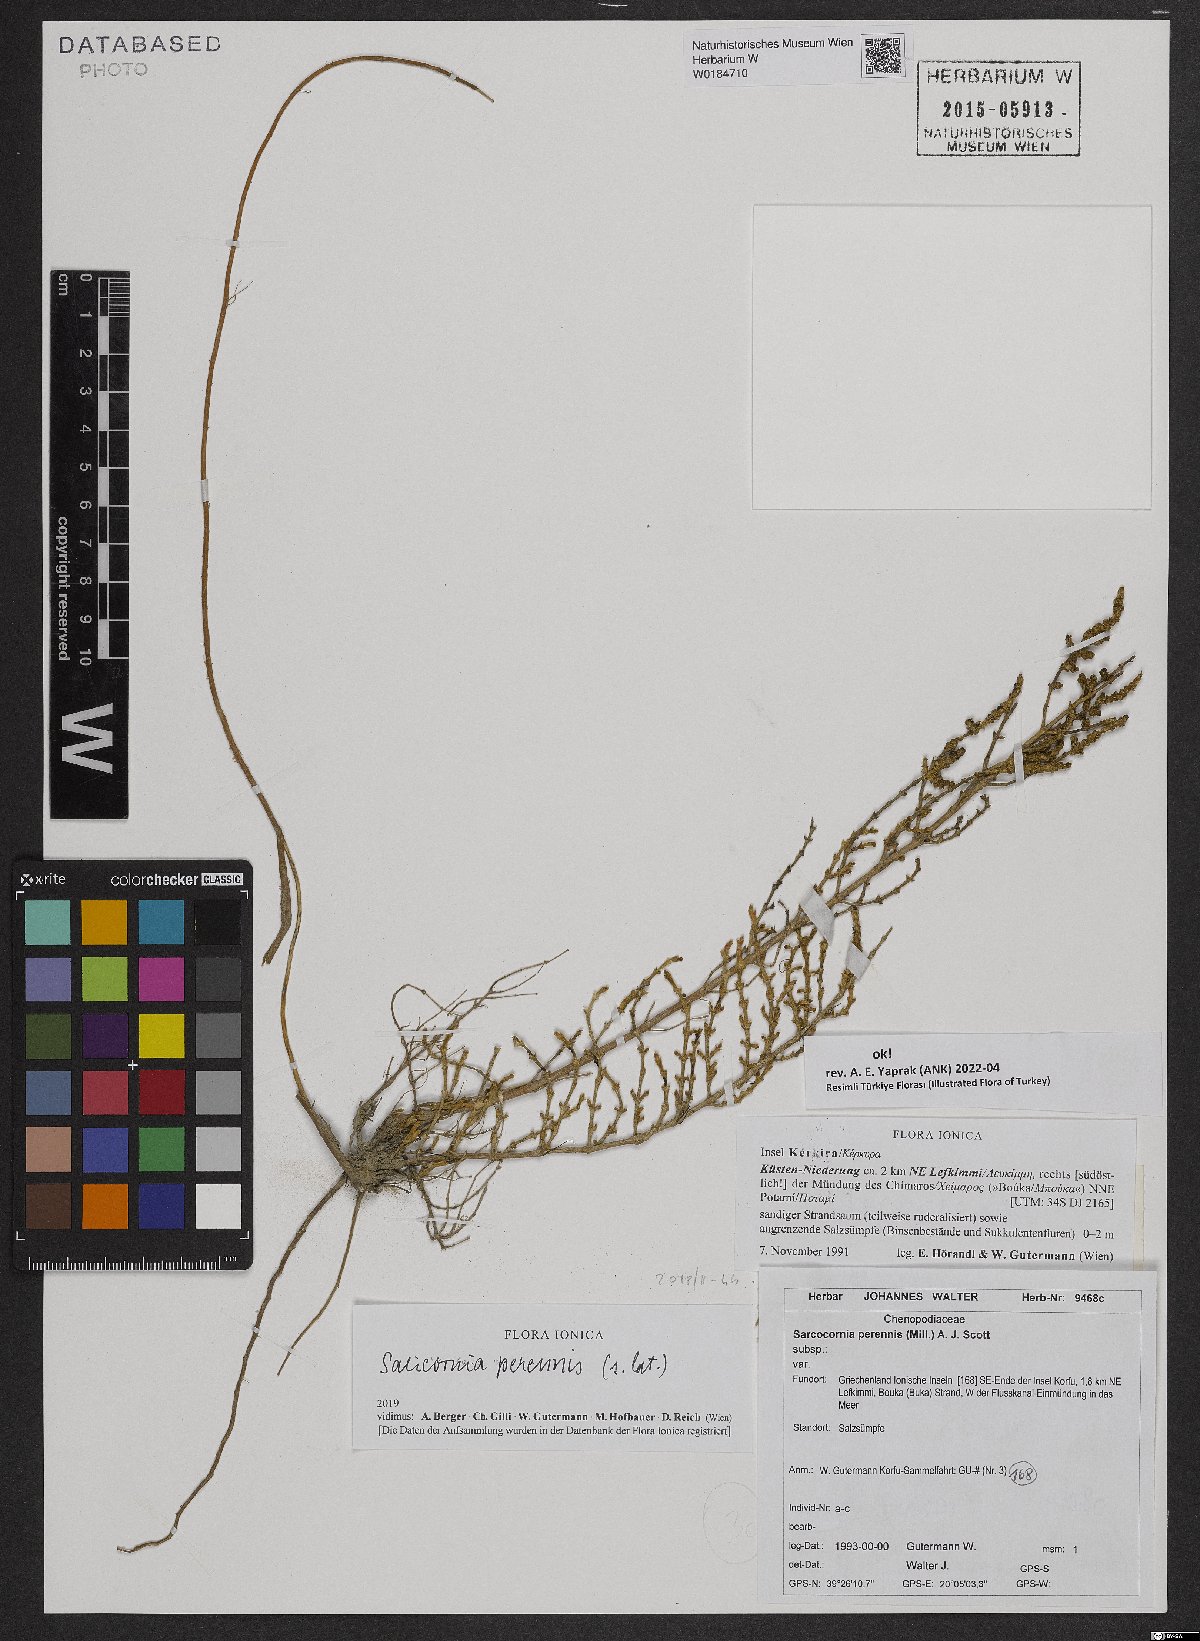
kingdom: Plantae
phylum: Tracheophyta
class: Magnoliopsida
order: Caryophyllales
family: Amaranthaceae
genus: Salicornia
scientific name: Salicornia perennis
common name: Chicken claws
